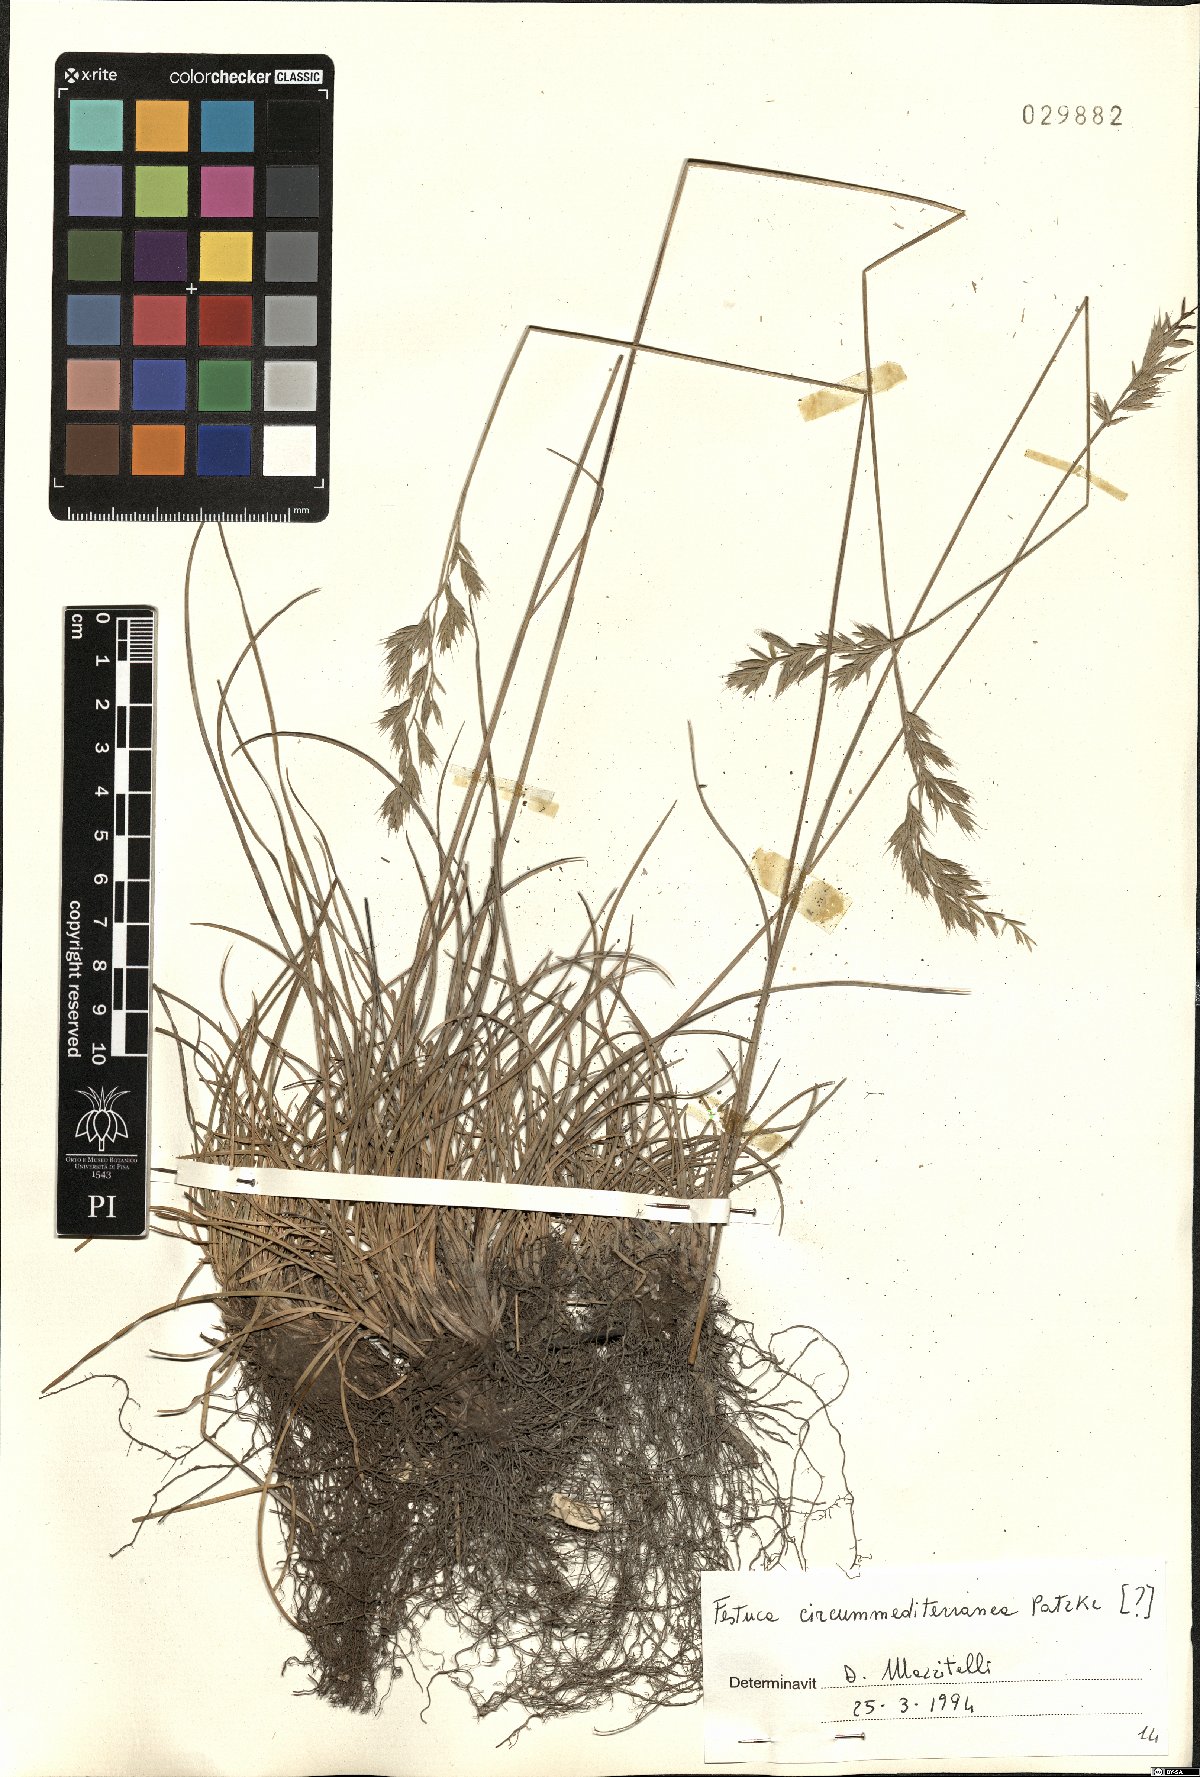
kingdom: Plantae
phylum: Tracheophyta
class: Liliopsida
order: Poales
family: Poaceae
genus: Festuca
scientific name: Festuca circummediterranea
